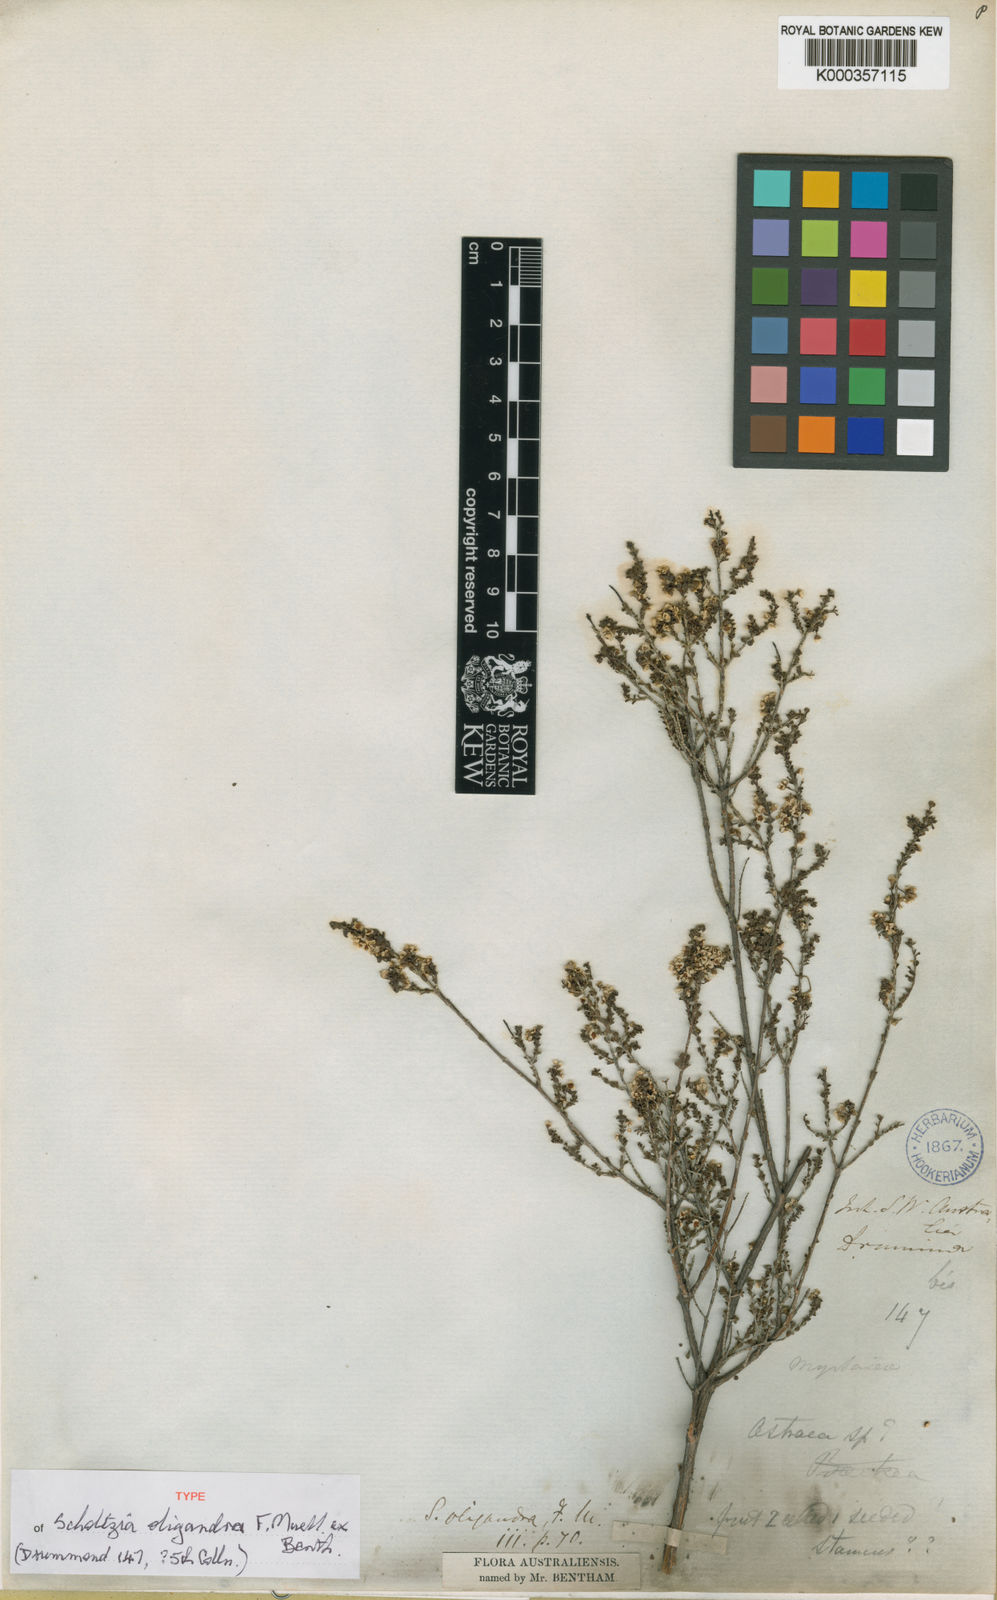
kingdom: Plantae
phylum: Tracheophyta
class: Magnoliopsida
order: Myrtales
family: Myrtaceae
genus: Scholtzia
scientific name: Scholtzia parviflora
